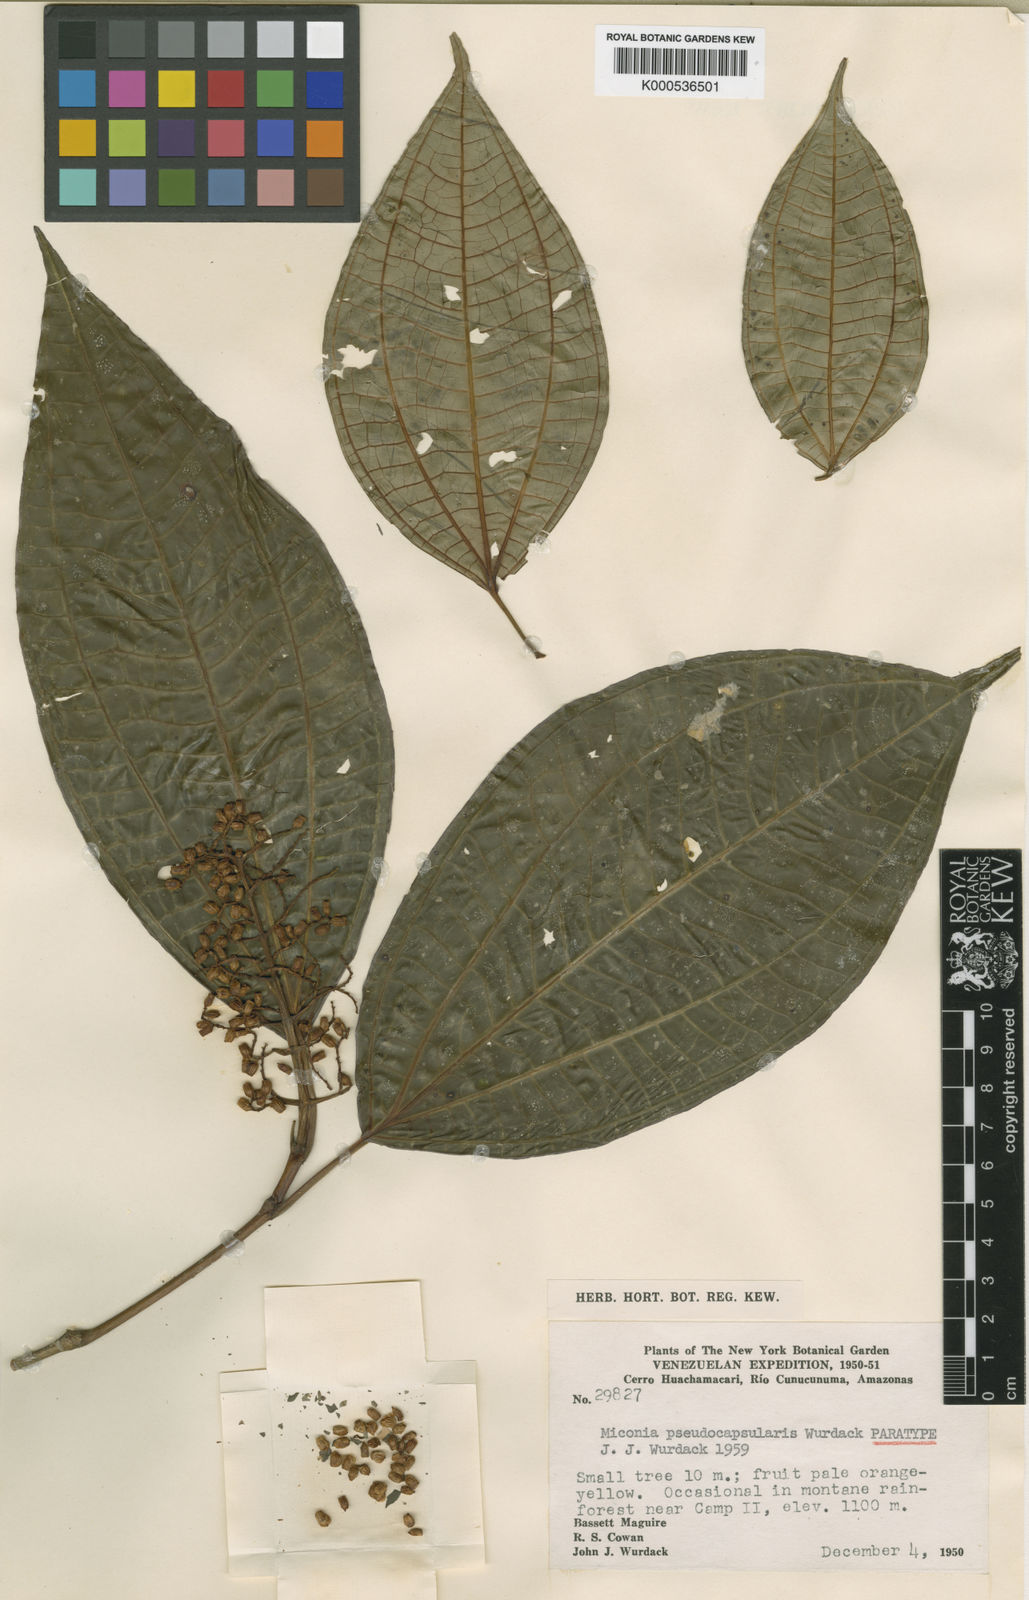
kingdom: Plantae
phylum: Tracheophyta
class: Magnoliopsida
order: Myrtales
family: Melastomataceae
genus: Miconia
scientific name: Miconia pseudocapsularis
